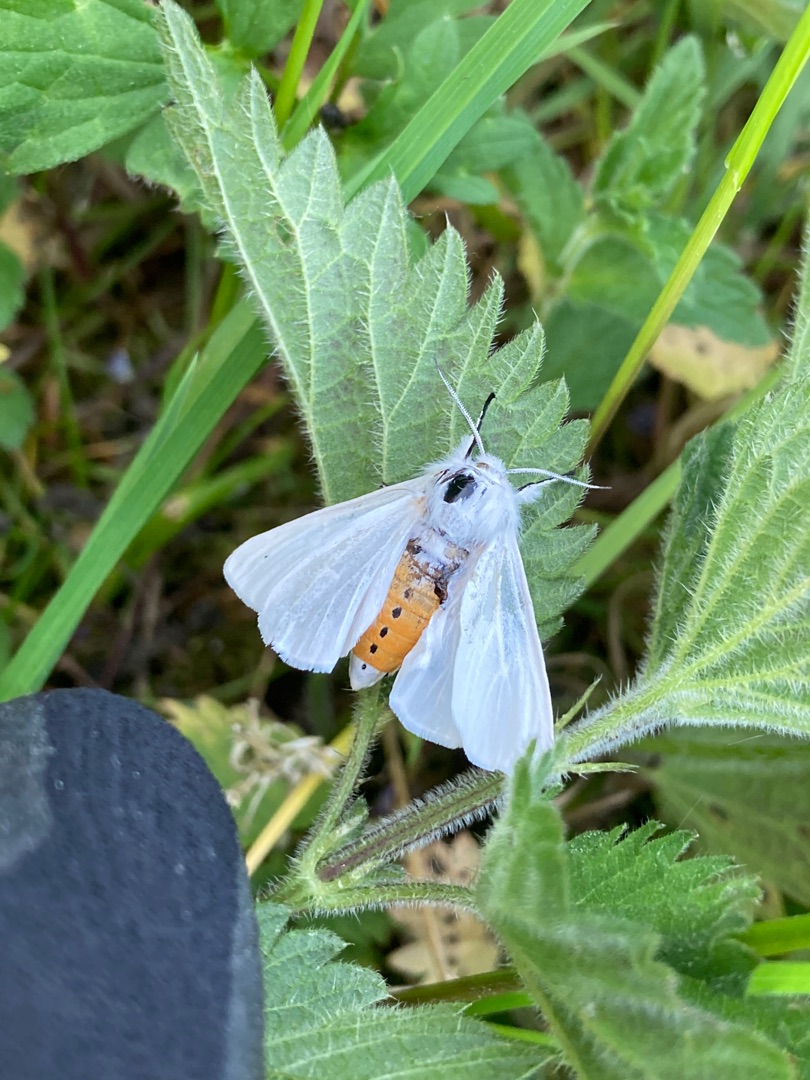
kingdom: Animalia
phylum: Arthropoda
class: Insecta
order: Lepidoptera
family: Erebidae
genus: Spilosoma
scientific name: Spilosoma urticae
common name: Hvid tigerspinder
